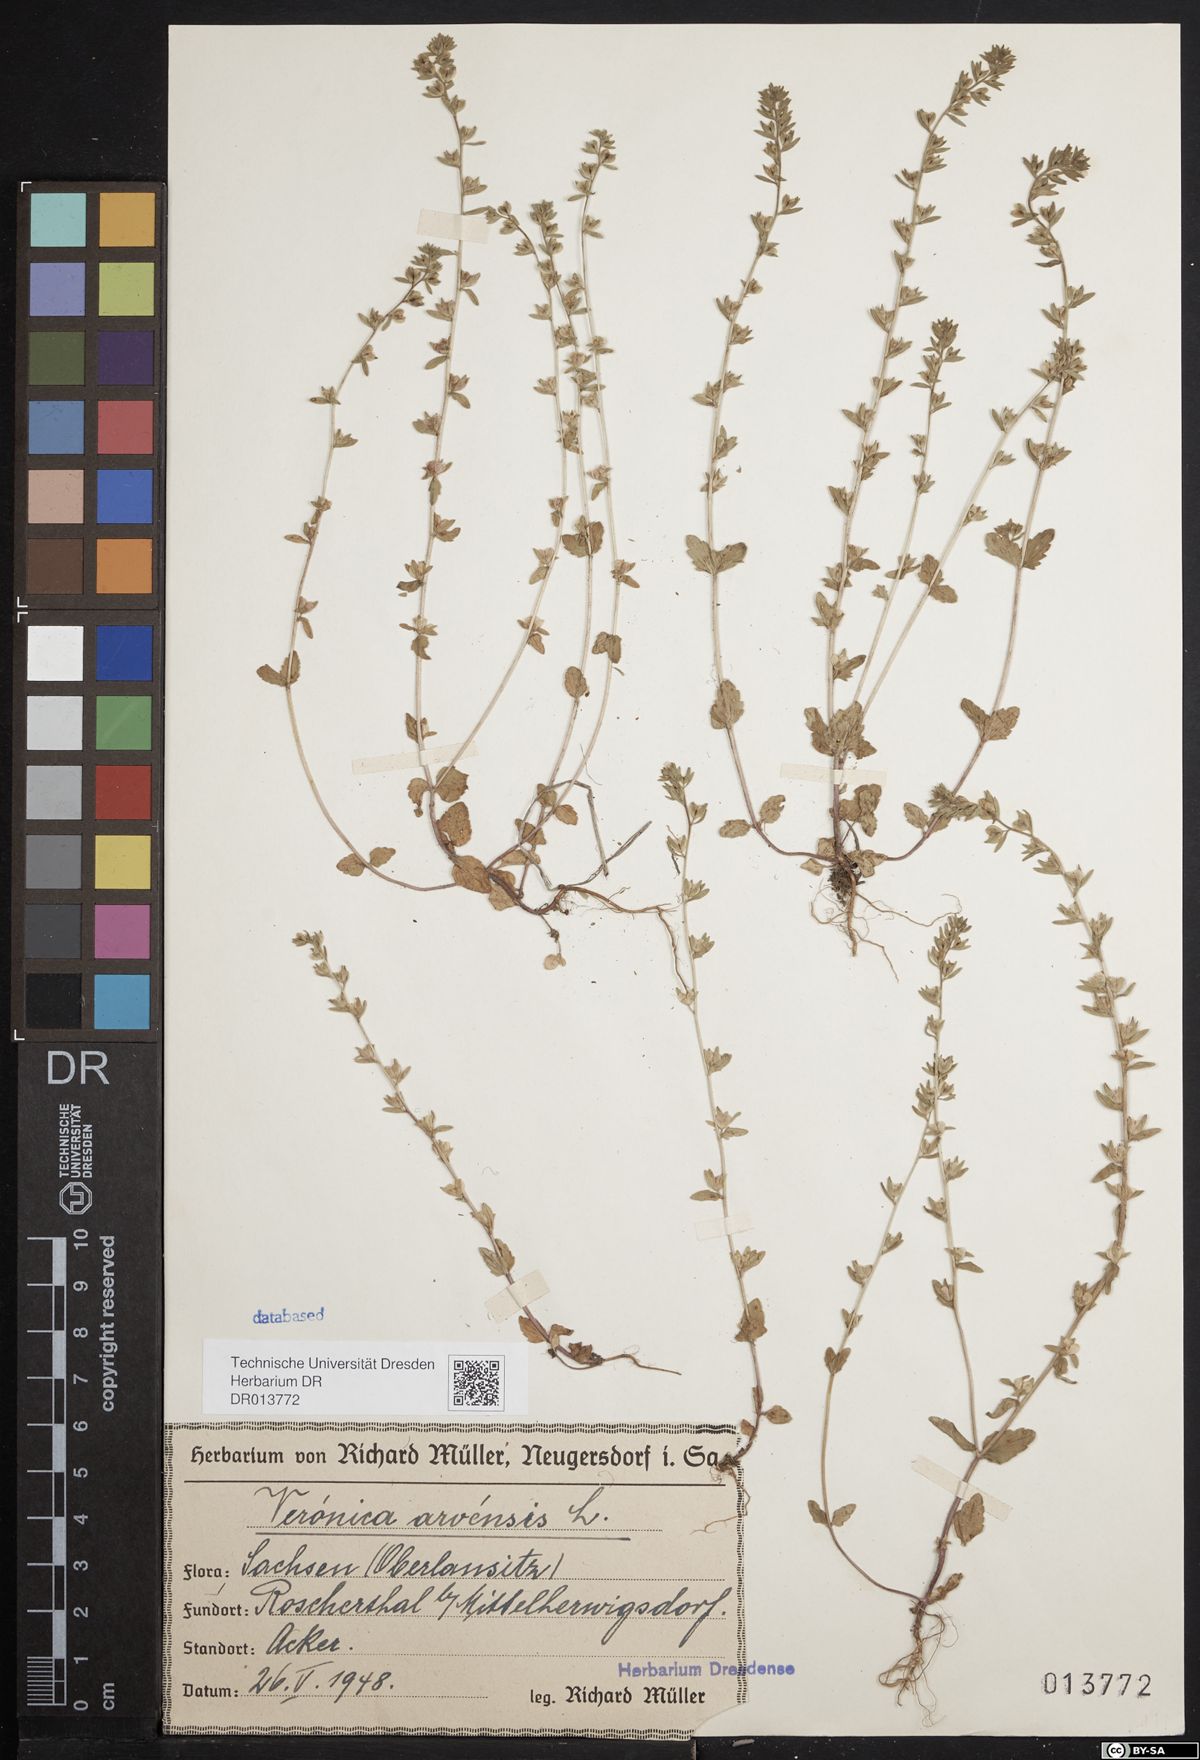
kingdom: Plantae
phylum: Tracheophyta
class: Magnoliopsida
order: Lamiales
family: Plantaginaceae
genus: Veronica
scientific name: Veronica arvensis
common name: Corn speedwell
